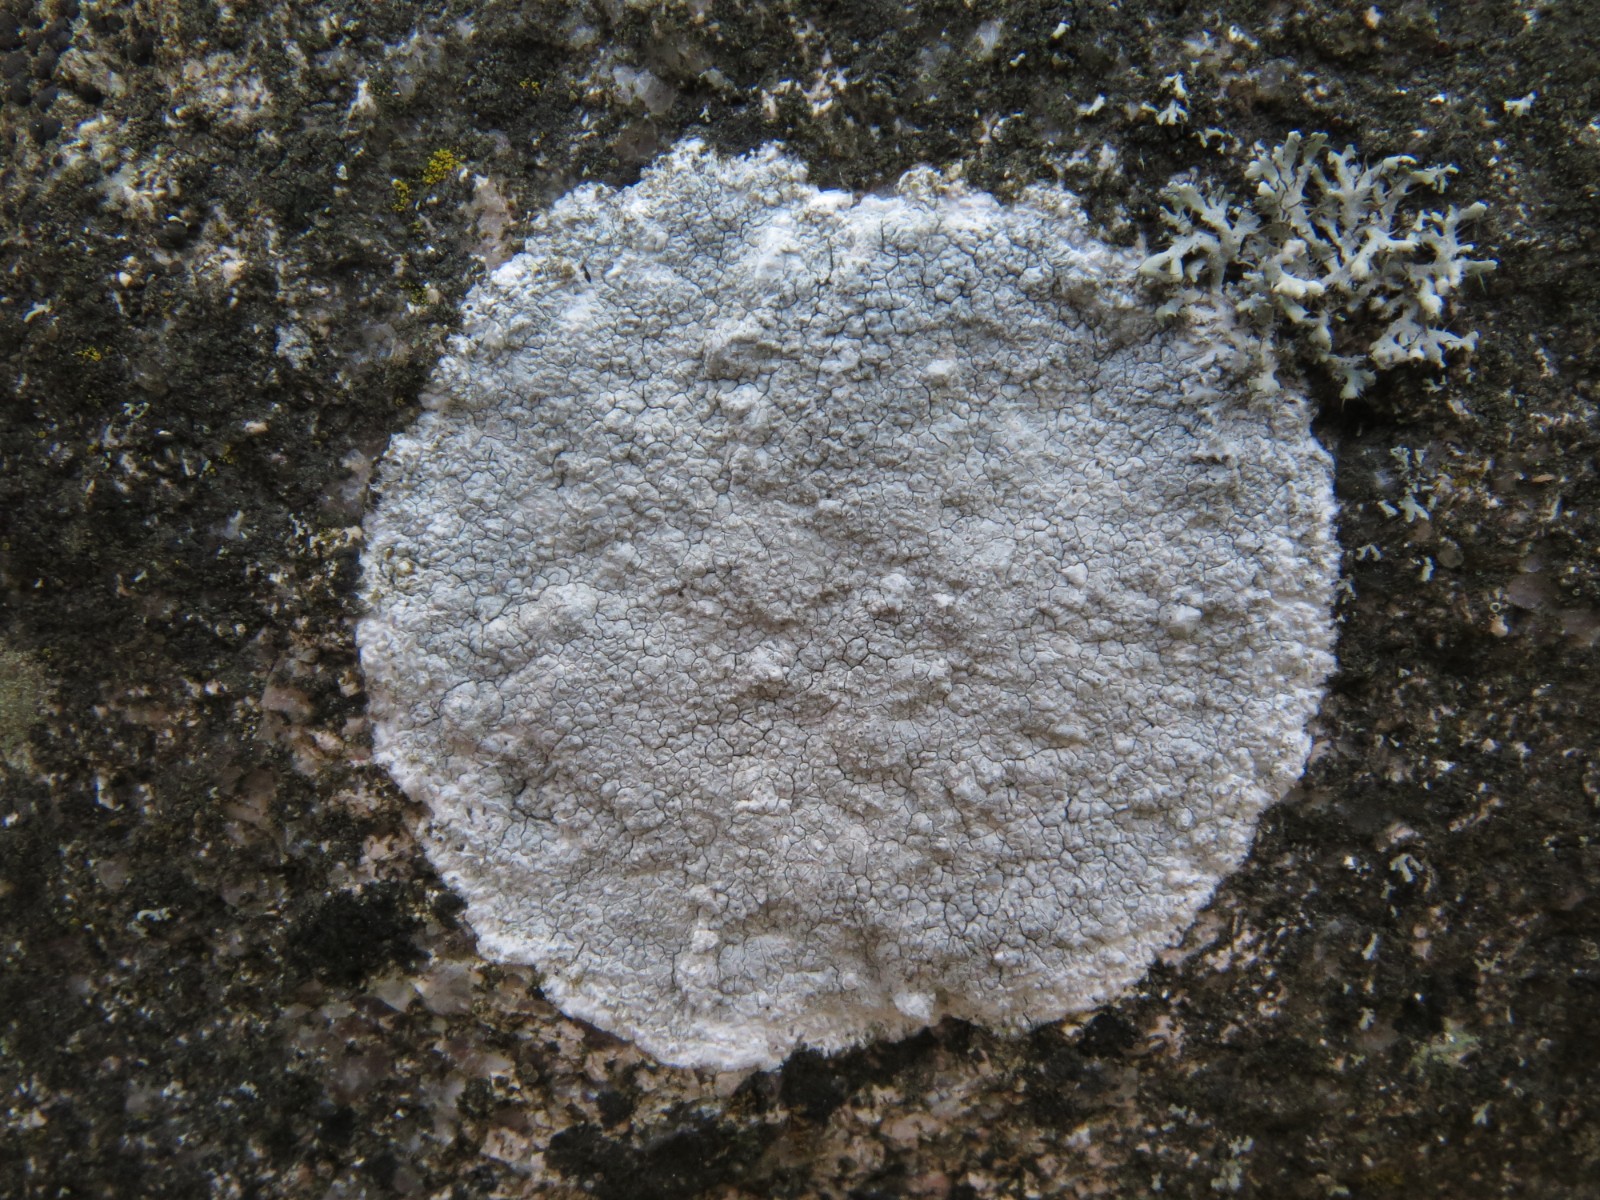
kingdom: Fungi
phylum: Ascomycota
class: Lecanoromycetes
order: Lecanorales
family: Lecanoraceae
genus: Glaucomaria
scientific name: Glaucomaria rupicola
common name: stengærde-kantskivelav
